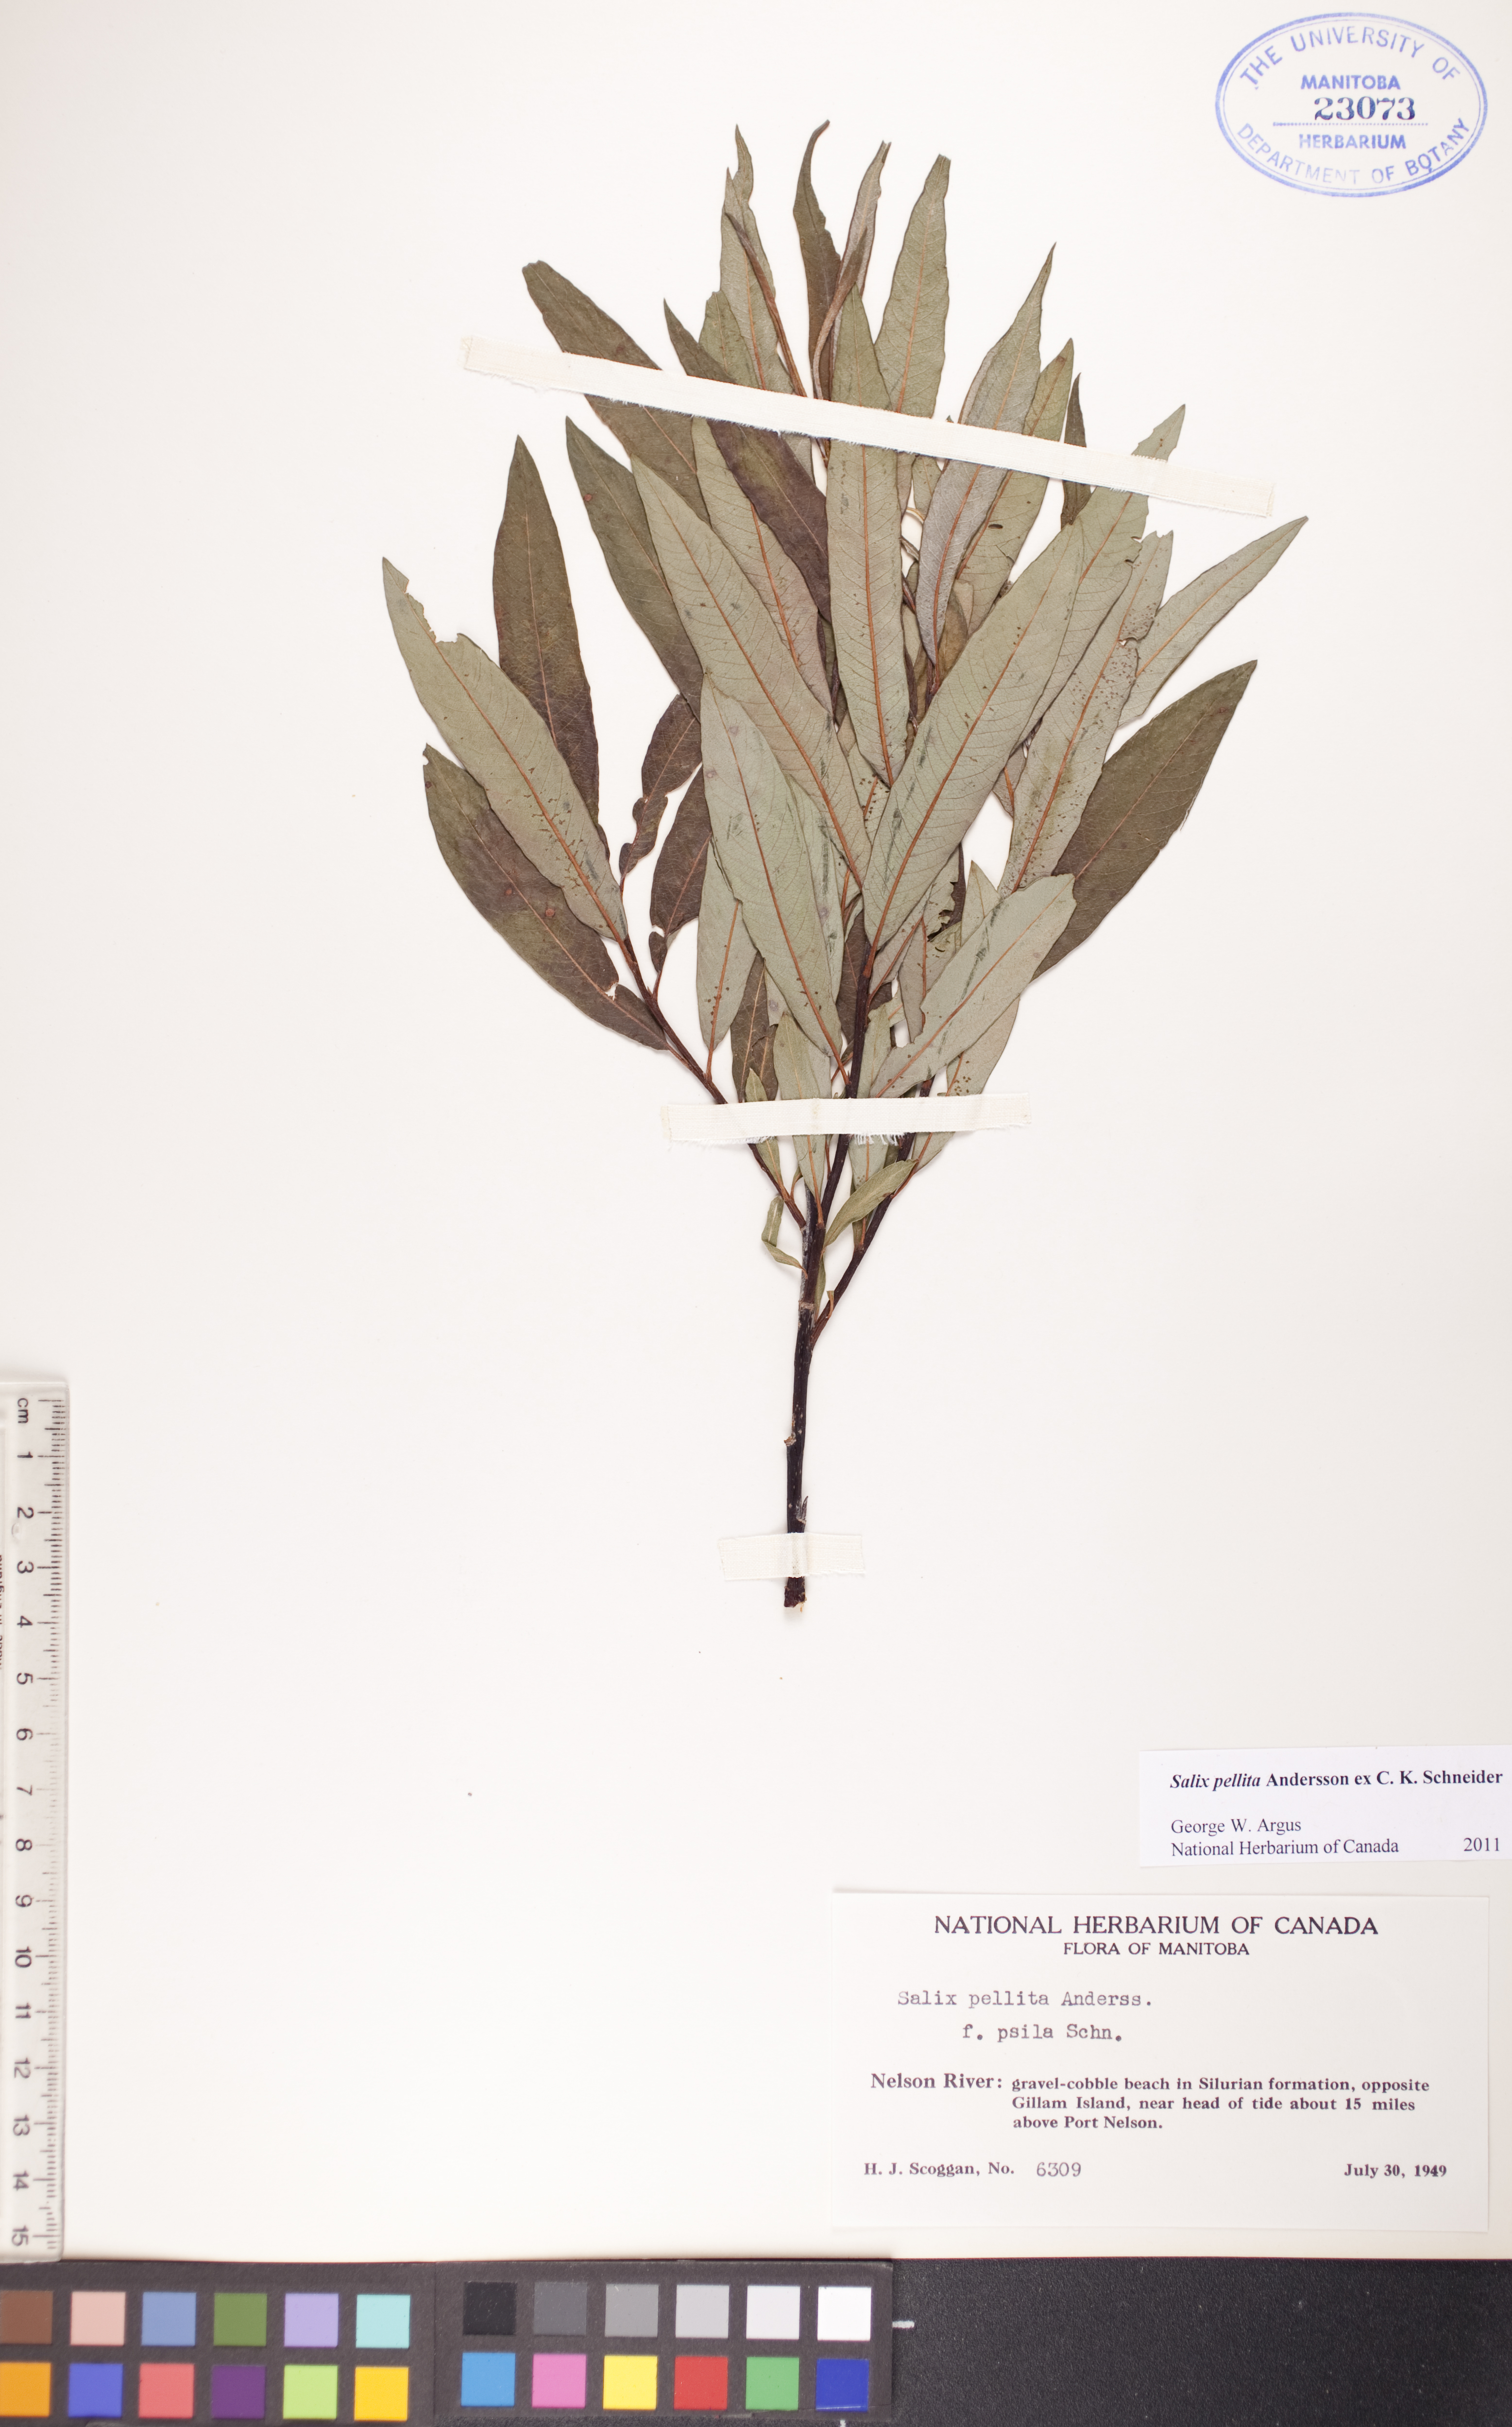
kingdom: Plantae
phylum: Tracheophyta
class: Magnoliopsida
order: Malpighiales
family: Salicaceae
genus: Salix
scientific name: Salix pellita
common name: Satiny willow
